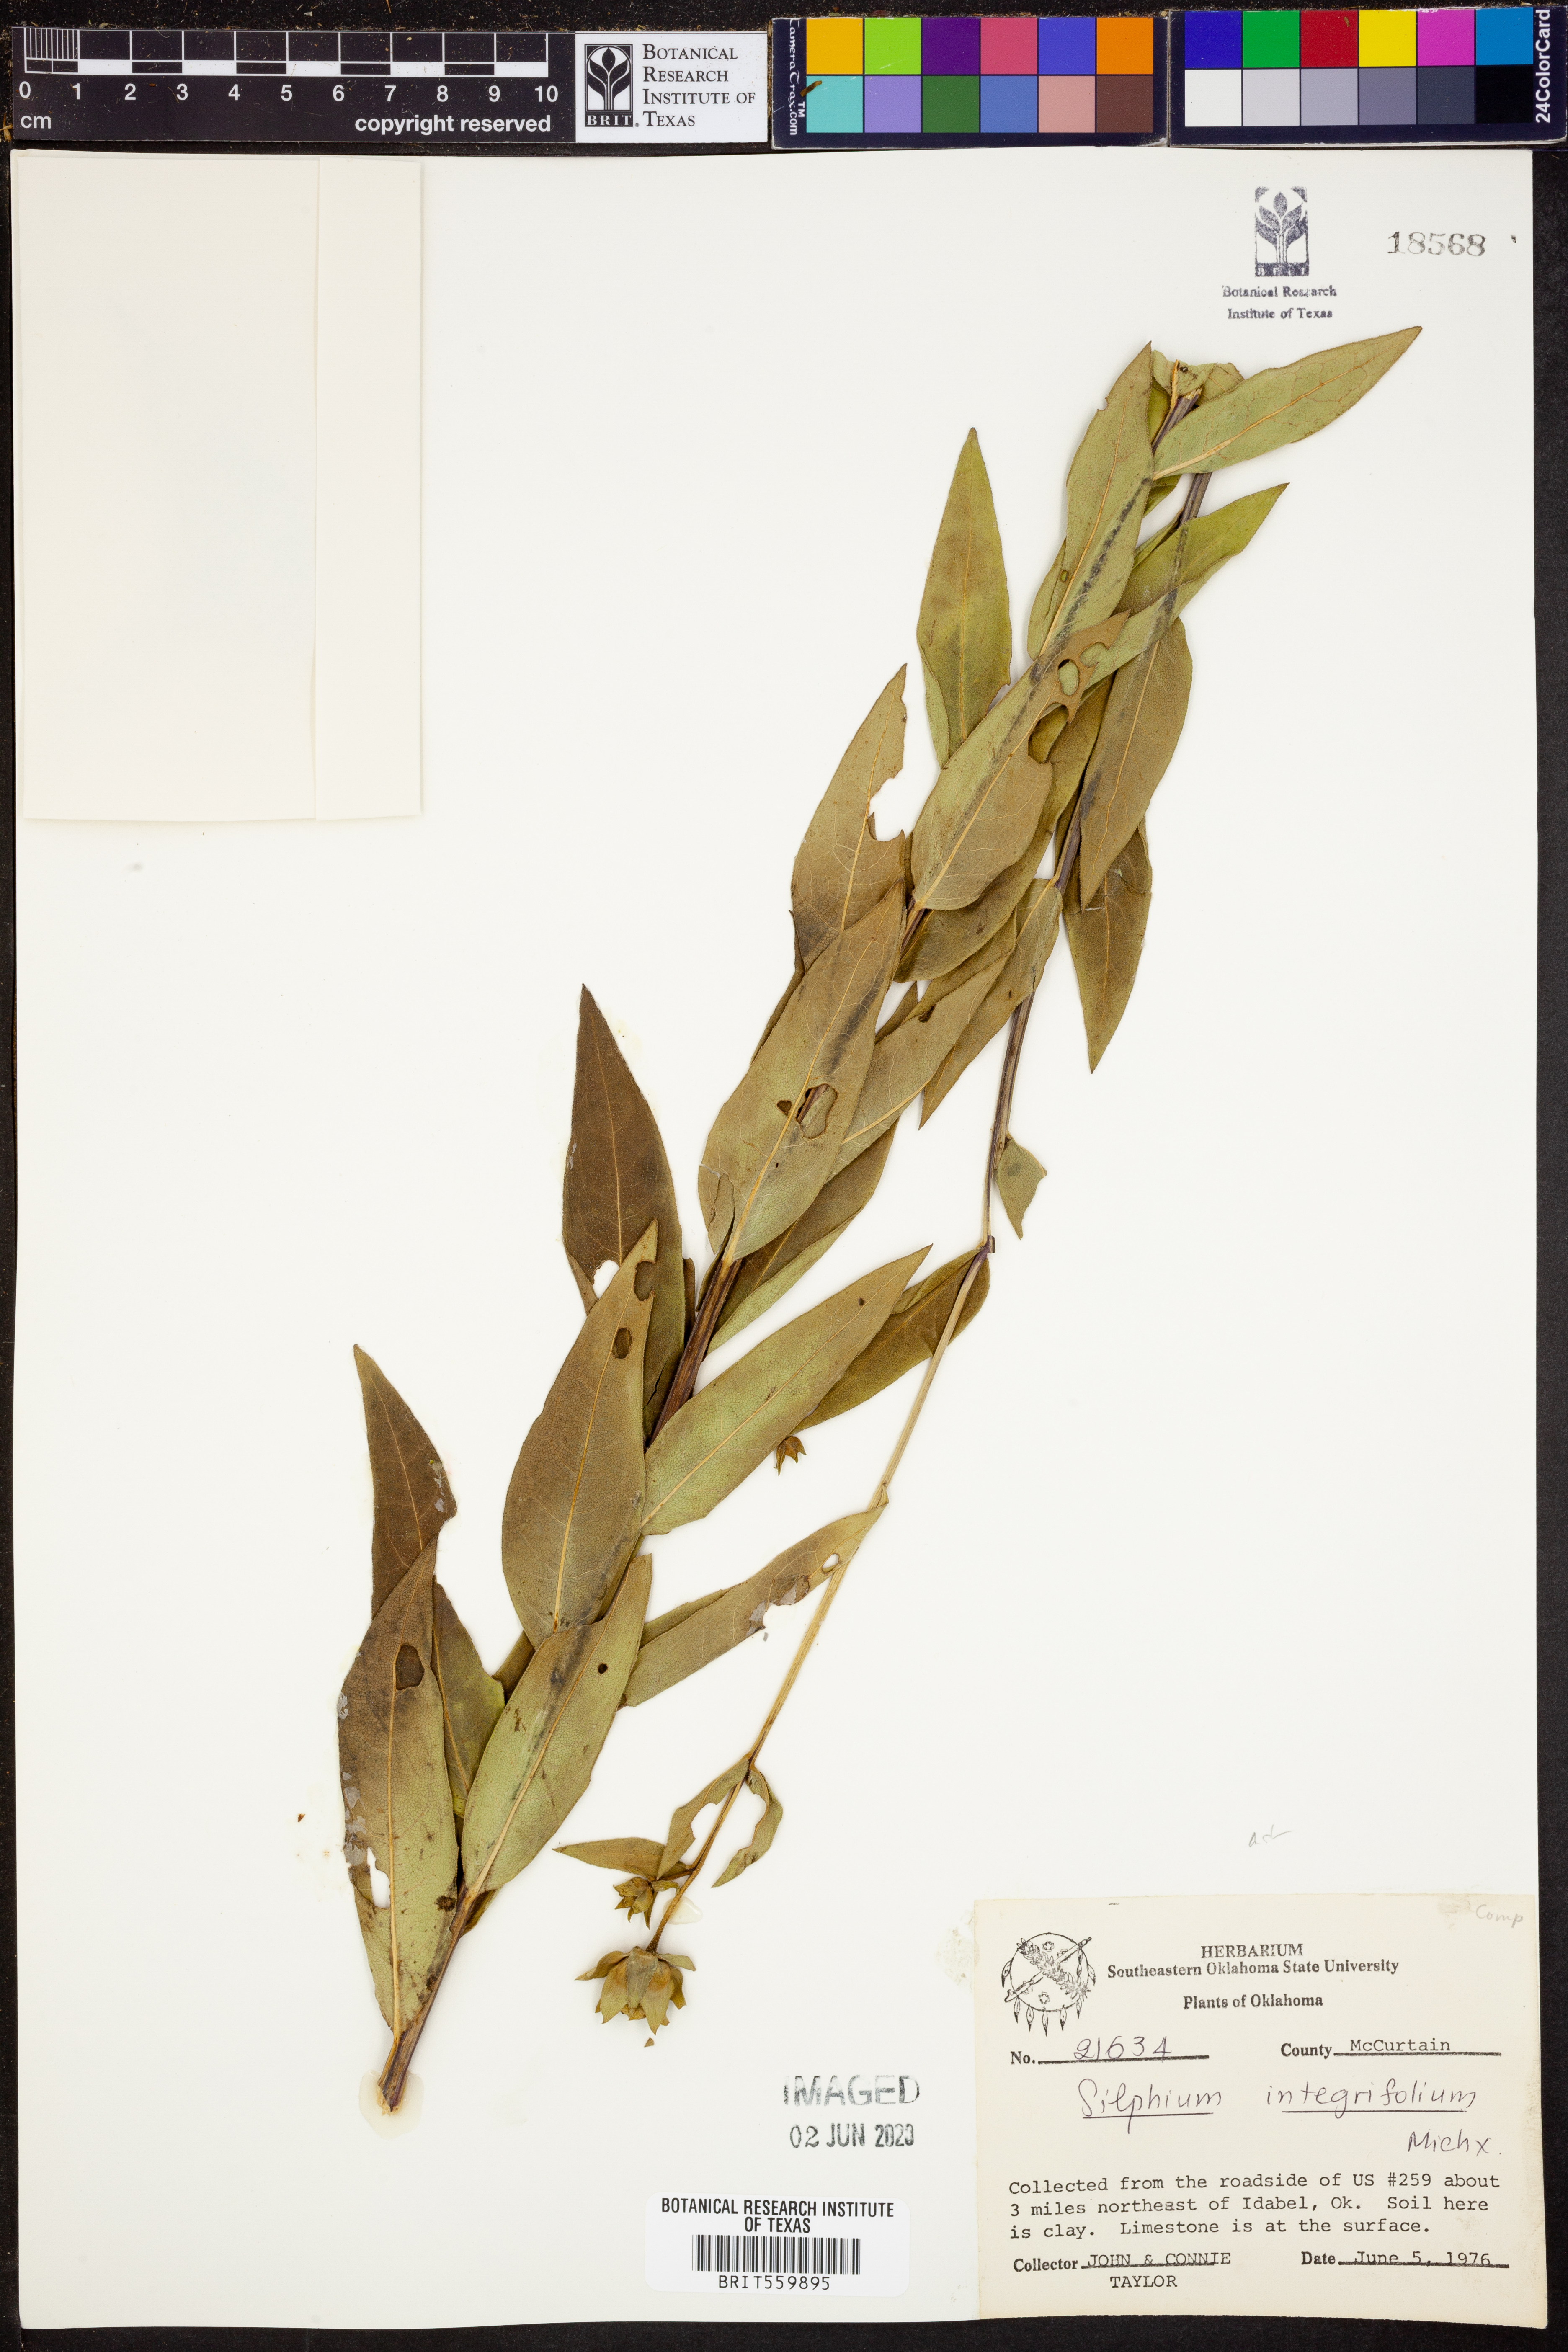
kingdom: Plantae
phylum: Tracheophyta
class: Magnoliopsida
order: Asterales
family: Asteraceae
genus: Silphium
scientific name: Silphium integrifolium
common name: Whole-leaf rosinweed
